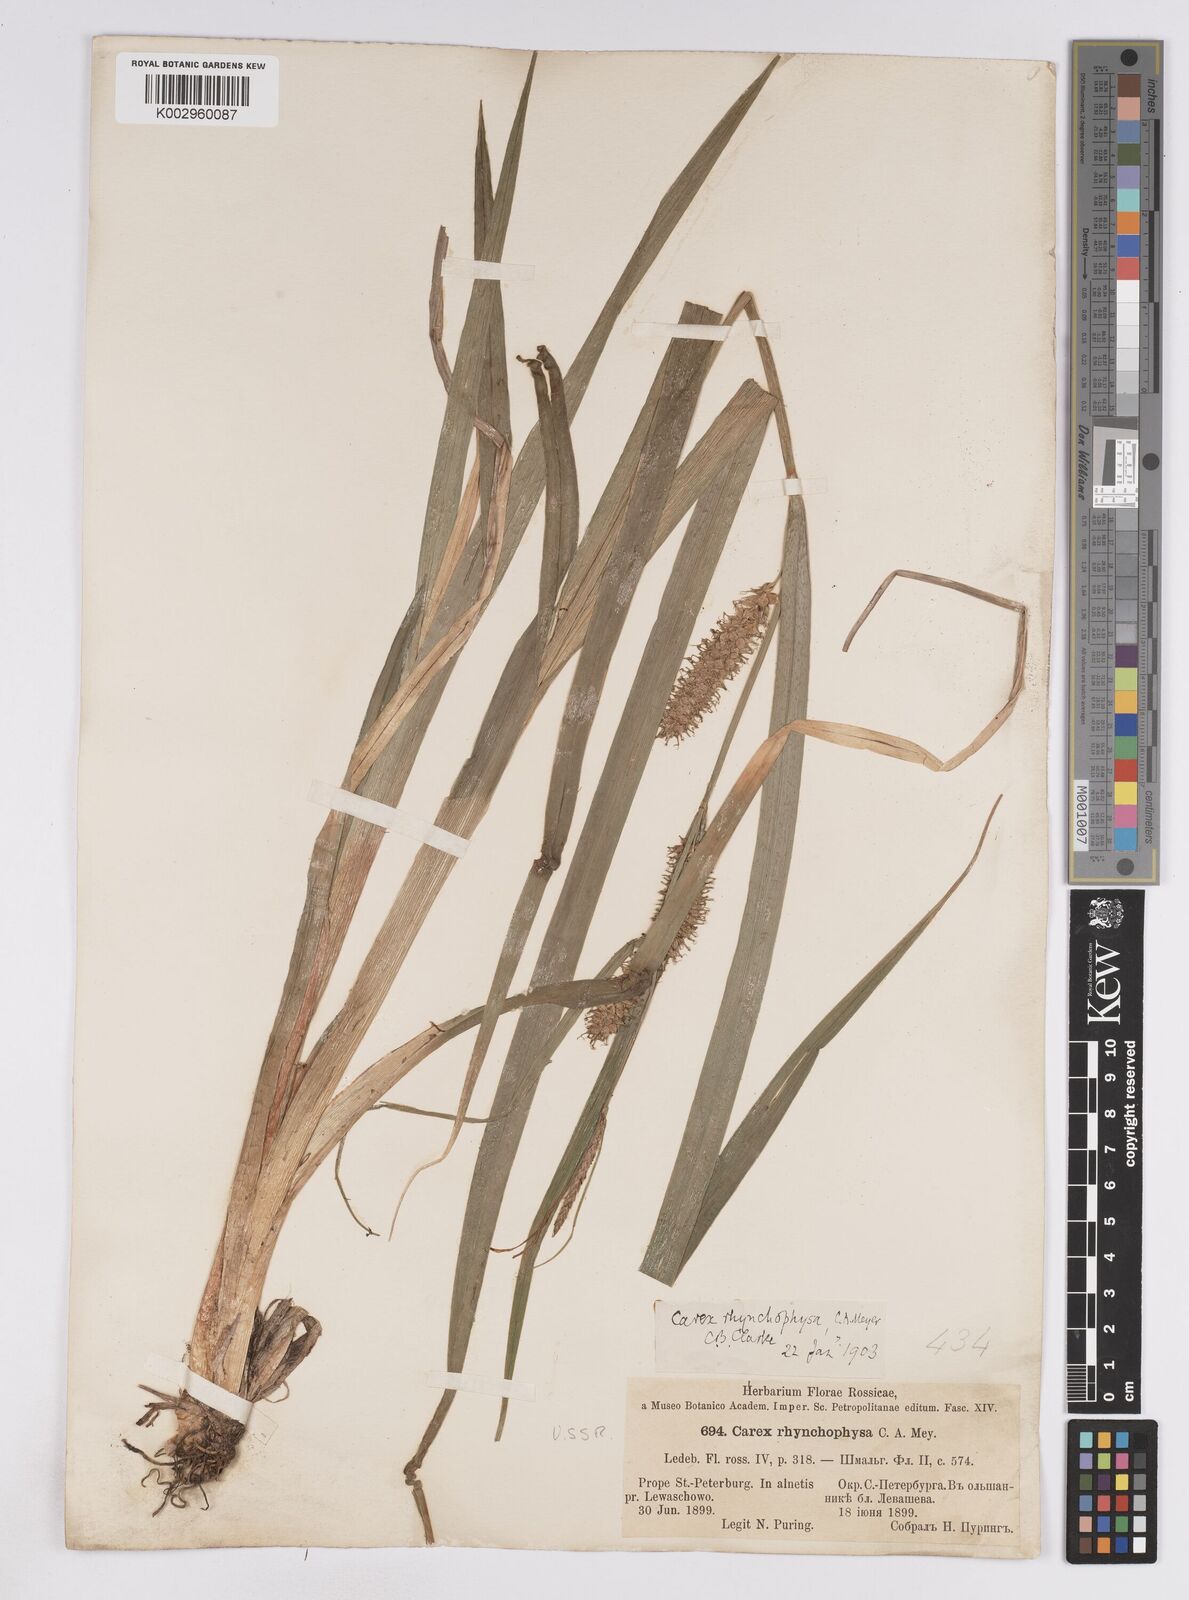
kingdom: Plantae
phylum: Tracheophyta
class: Liliopsida
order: Poales
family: Cyperaceae
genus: Carex
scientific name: Carex utriculata
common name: Beaked sedge
